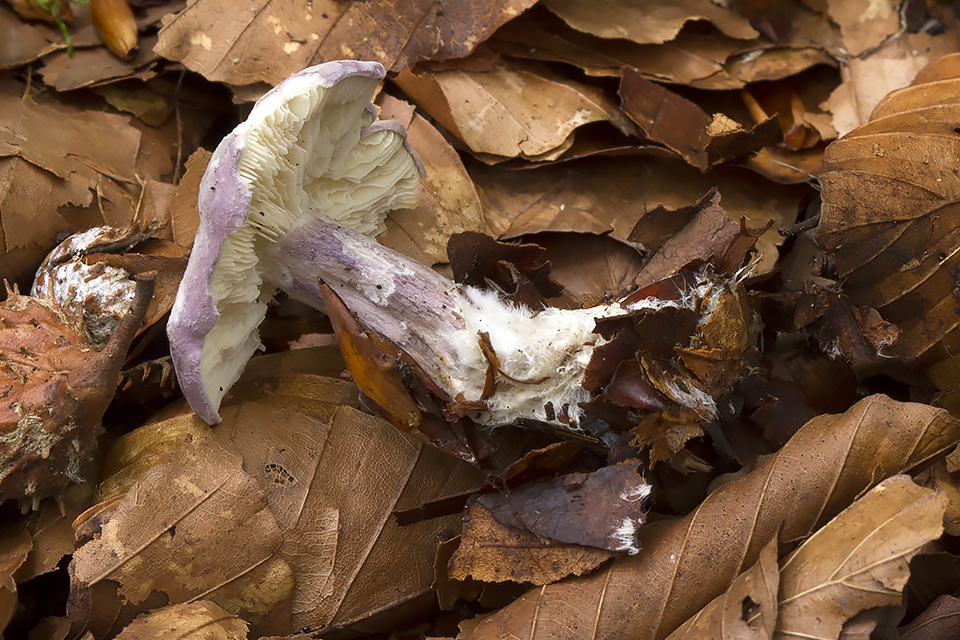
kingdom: Fungi
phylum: Basidiomycota
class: Agaricomycetes
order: Agaricales
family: Lyophyllaceae
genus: Calocybe
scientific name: Calocybe ionides
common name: violblå fagerhat
